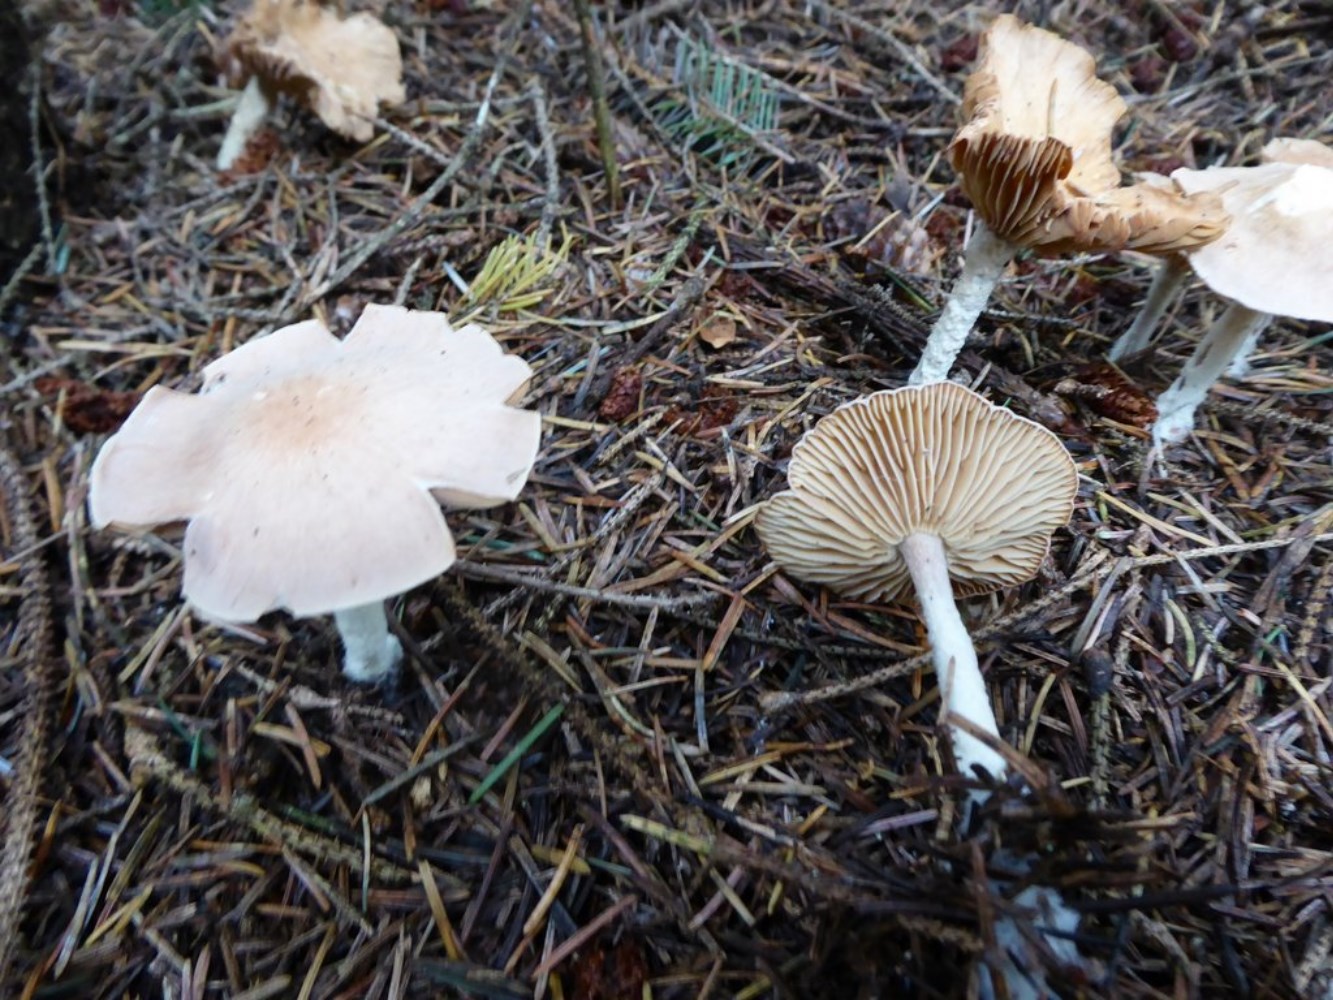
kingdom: Fungi
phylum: Basidiomycota
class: Agaricomycetes
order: Agaricales
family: Omphalotaceae
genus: Collybiopsis
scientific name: Collybiopsis peronata
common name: bestøvlet fladhat
